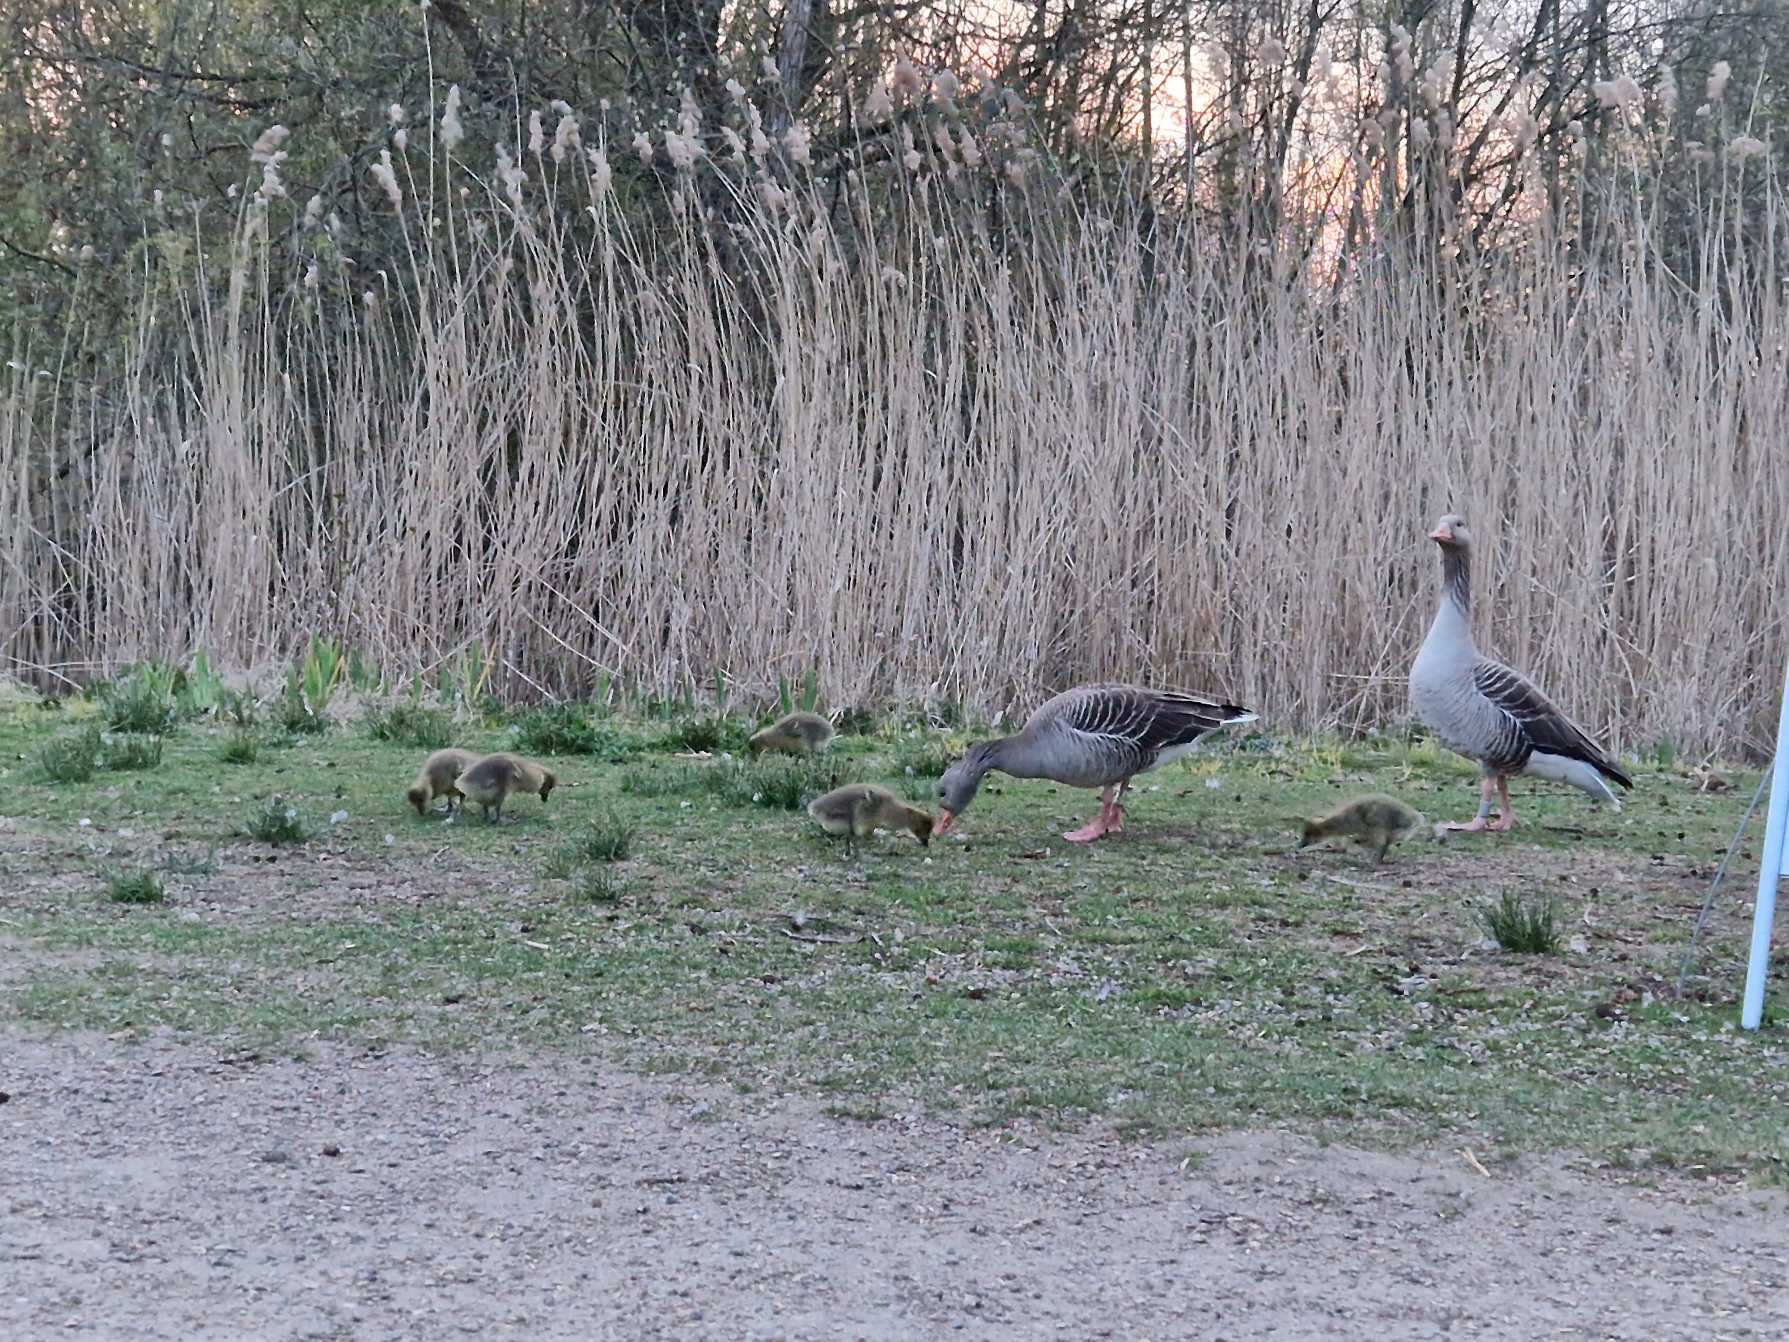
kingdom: Animalia
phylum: Chordata
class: Aves
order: Anseriformes
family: Anatidae
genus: Anser
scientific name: Anser anser
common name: Grågås
